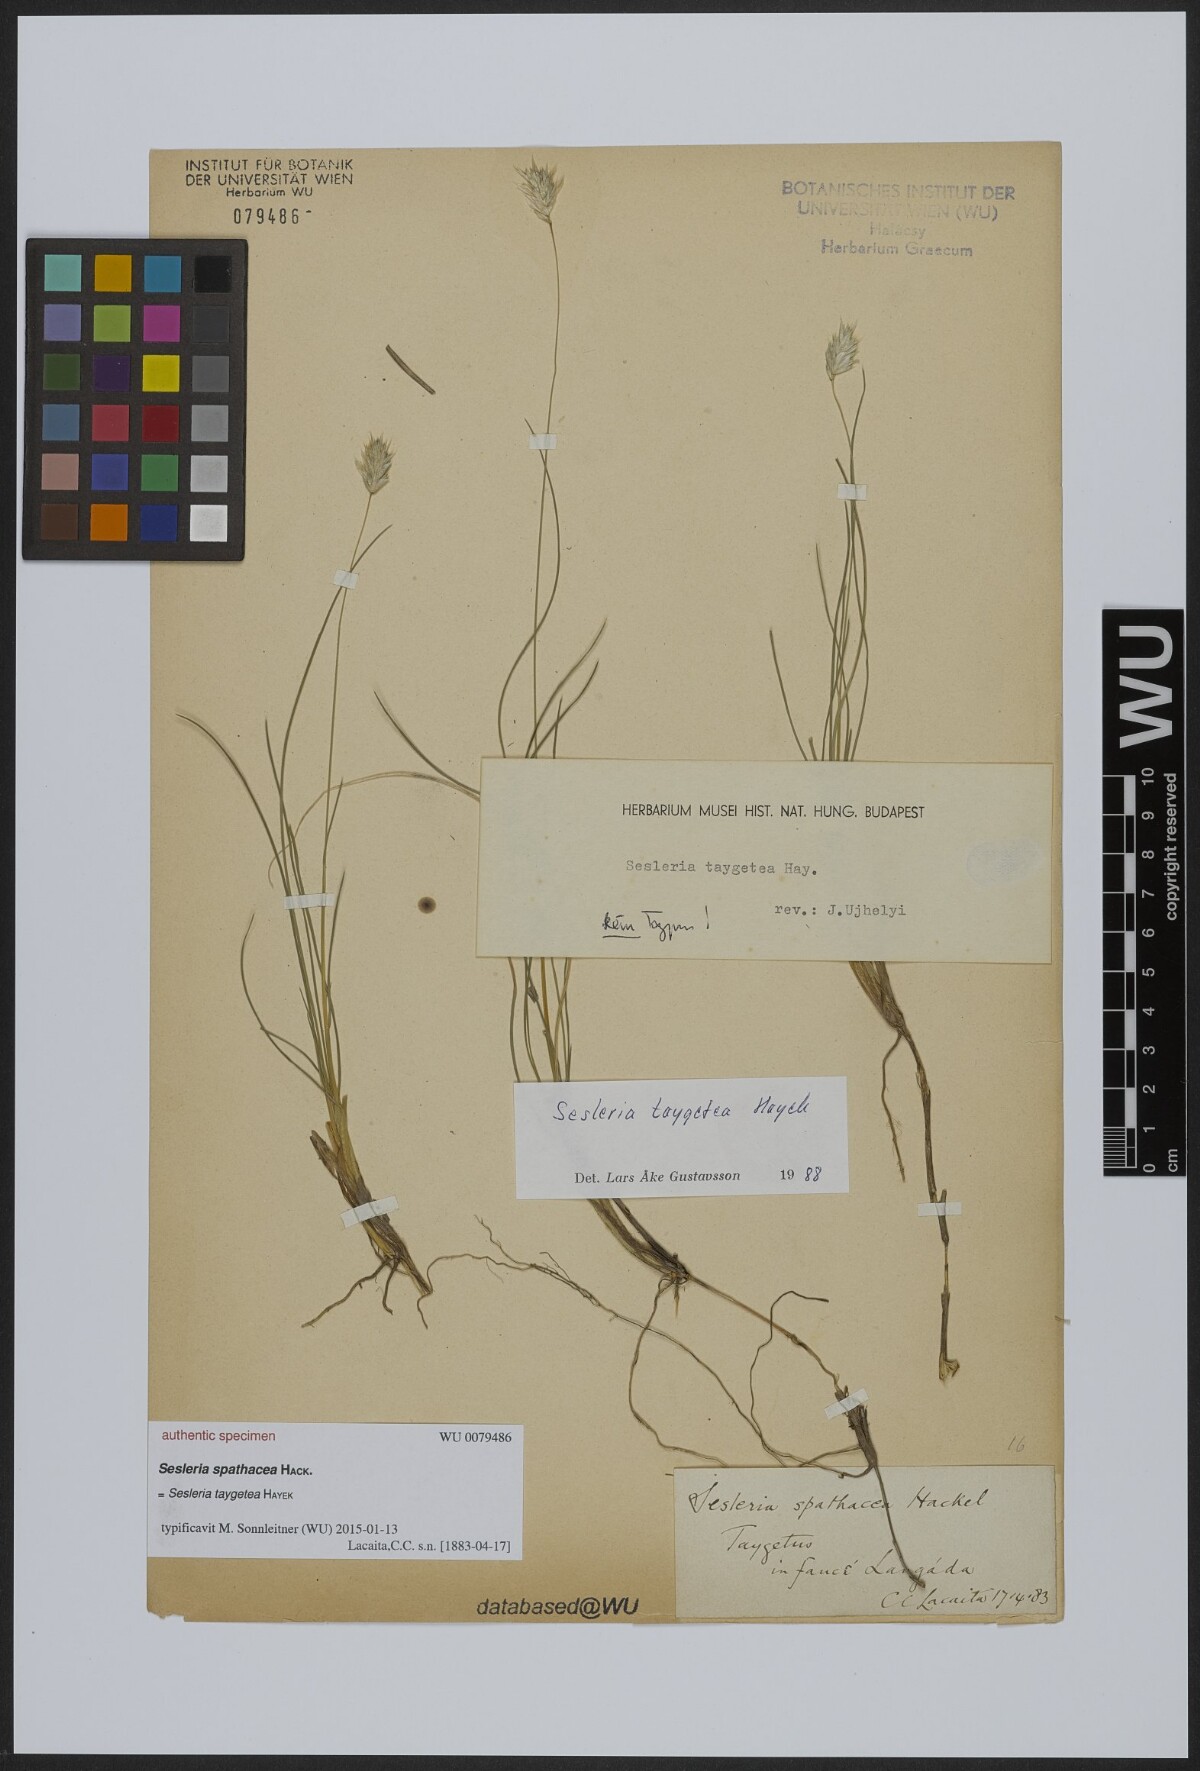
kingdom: Plantae
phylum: Tracheophyta
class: Liliopsida
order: Poales
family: Poaceae
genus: Sesleria
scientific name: Sesleria
